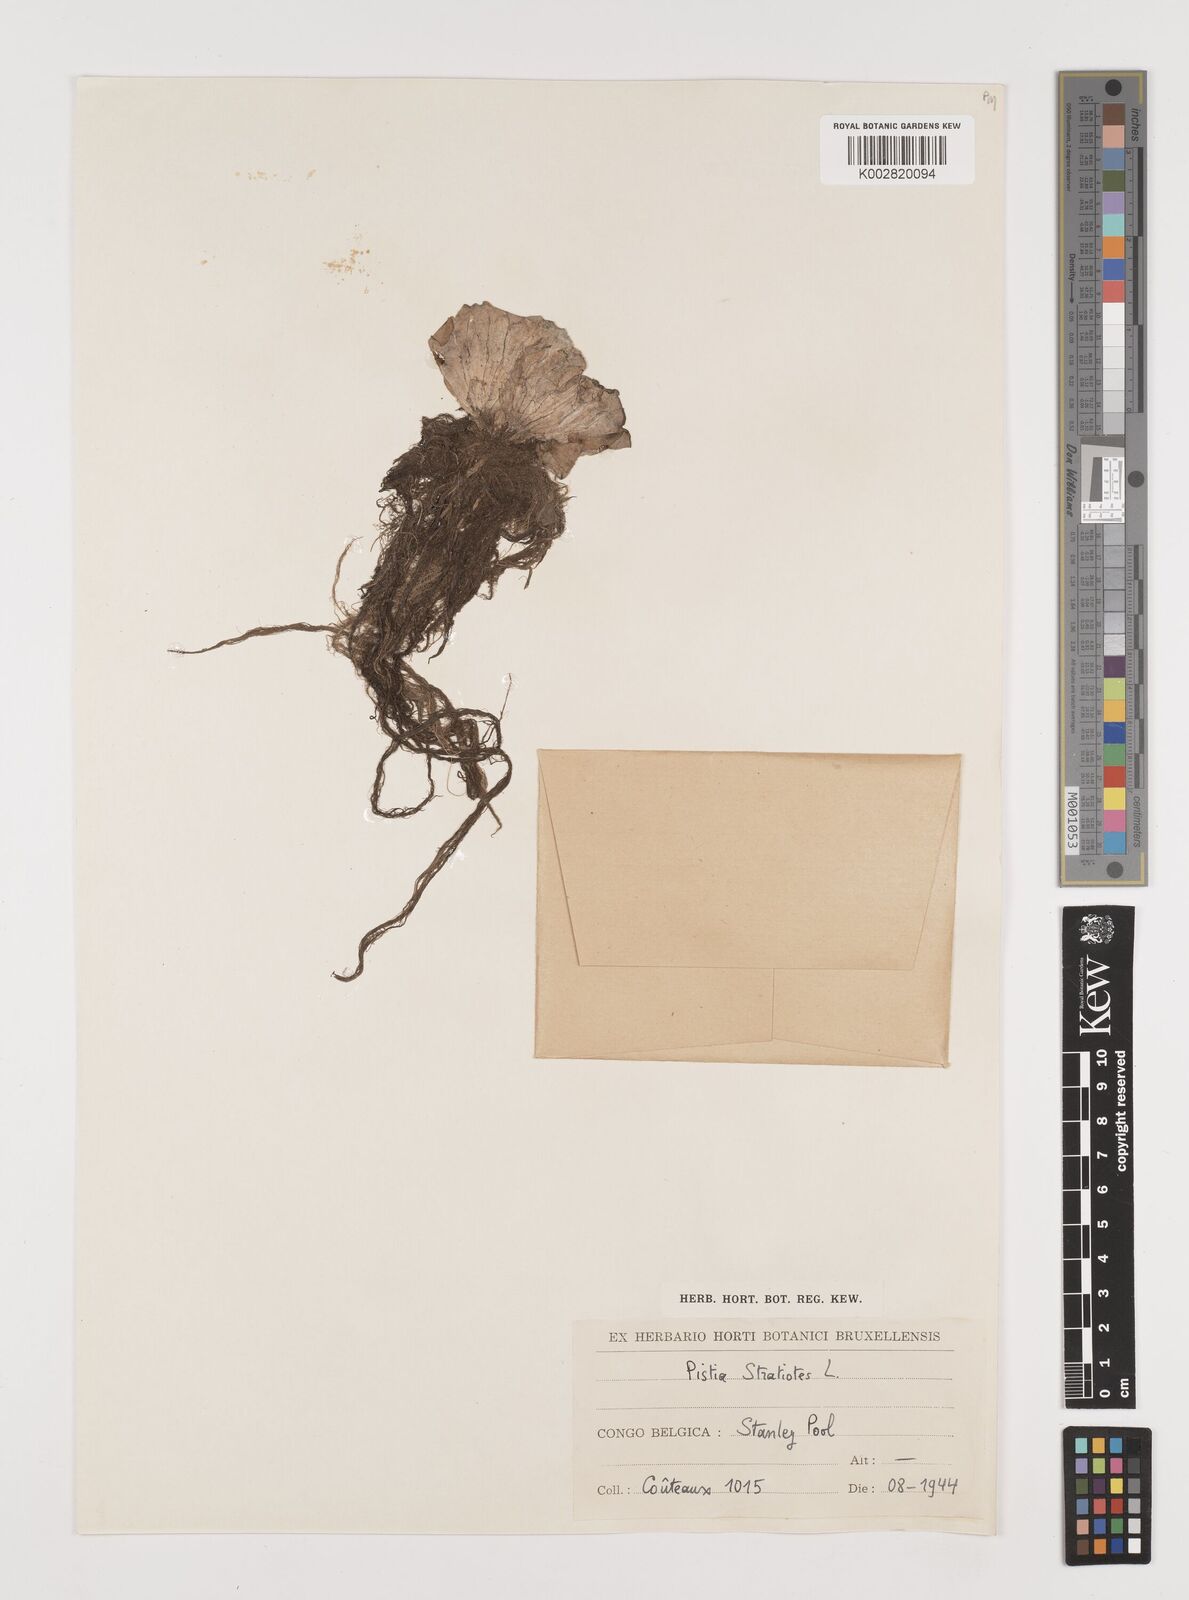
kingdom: Plantae
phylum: Tracheophyta
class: Liliopsida
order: Alismatales
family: Araceae
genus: Pistia
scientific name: Pistia stratiotes
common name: Water lettuce
